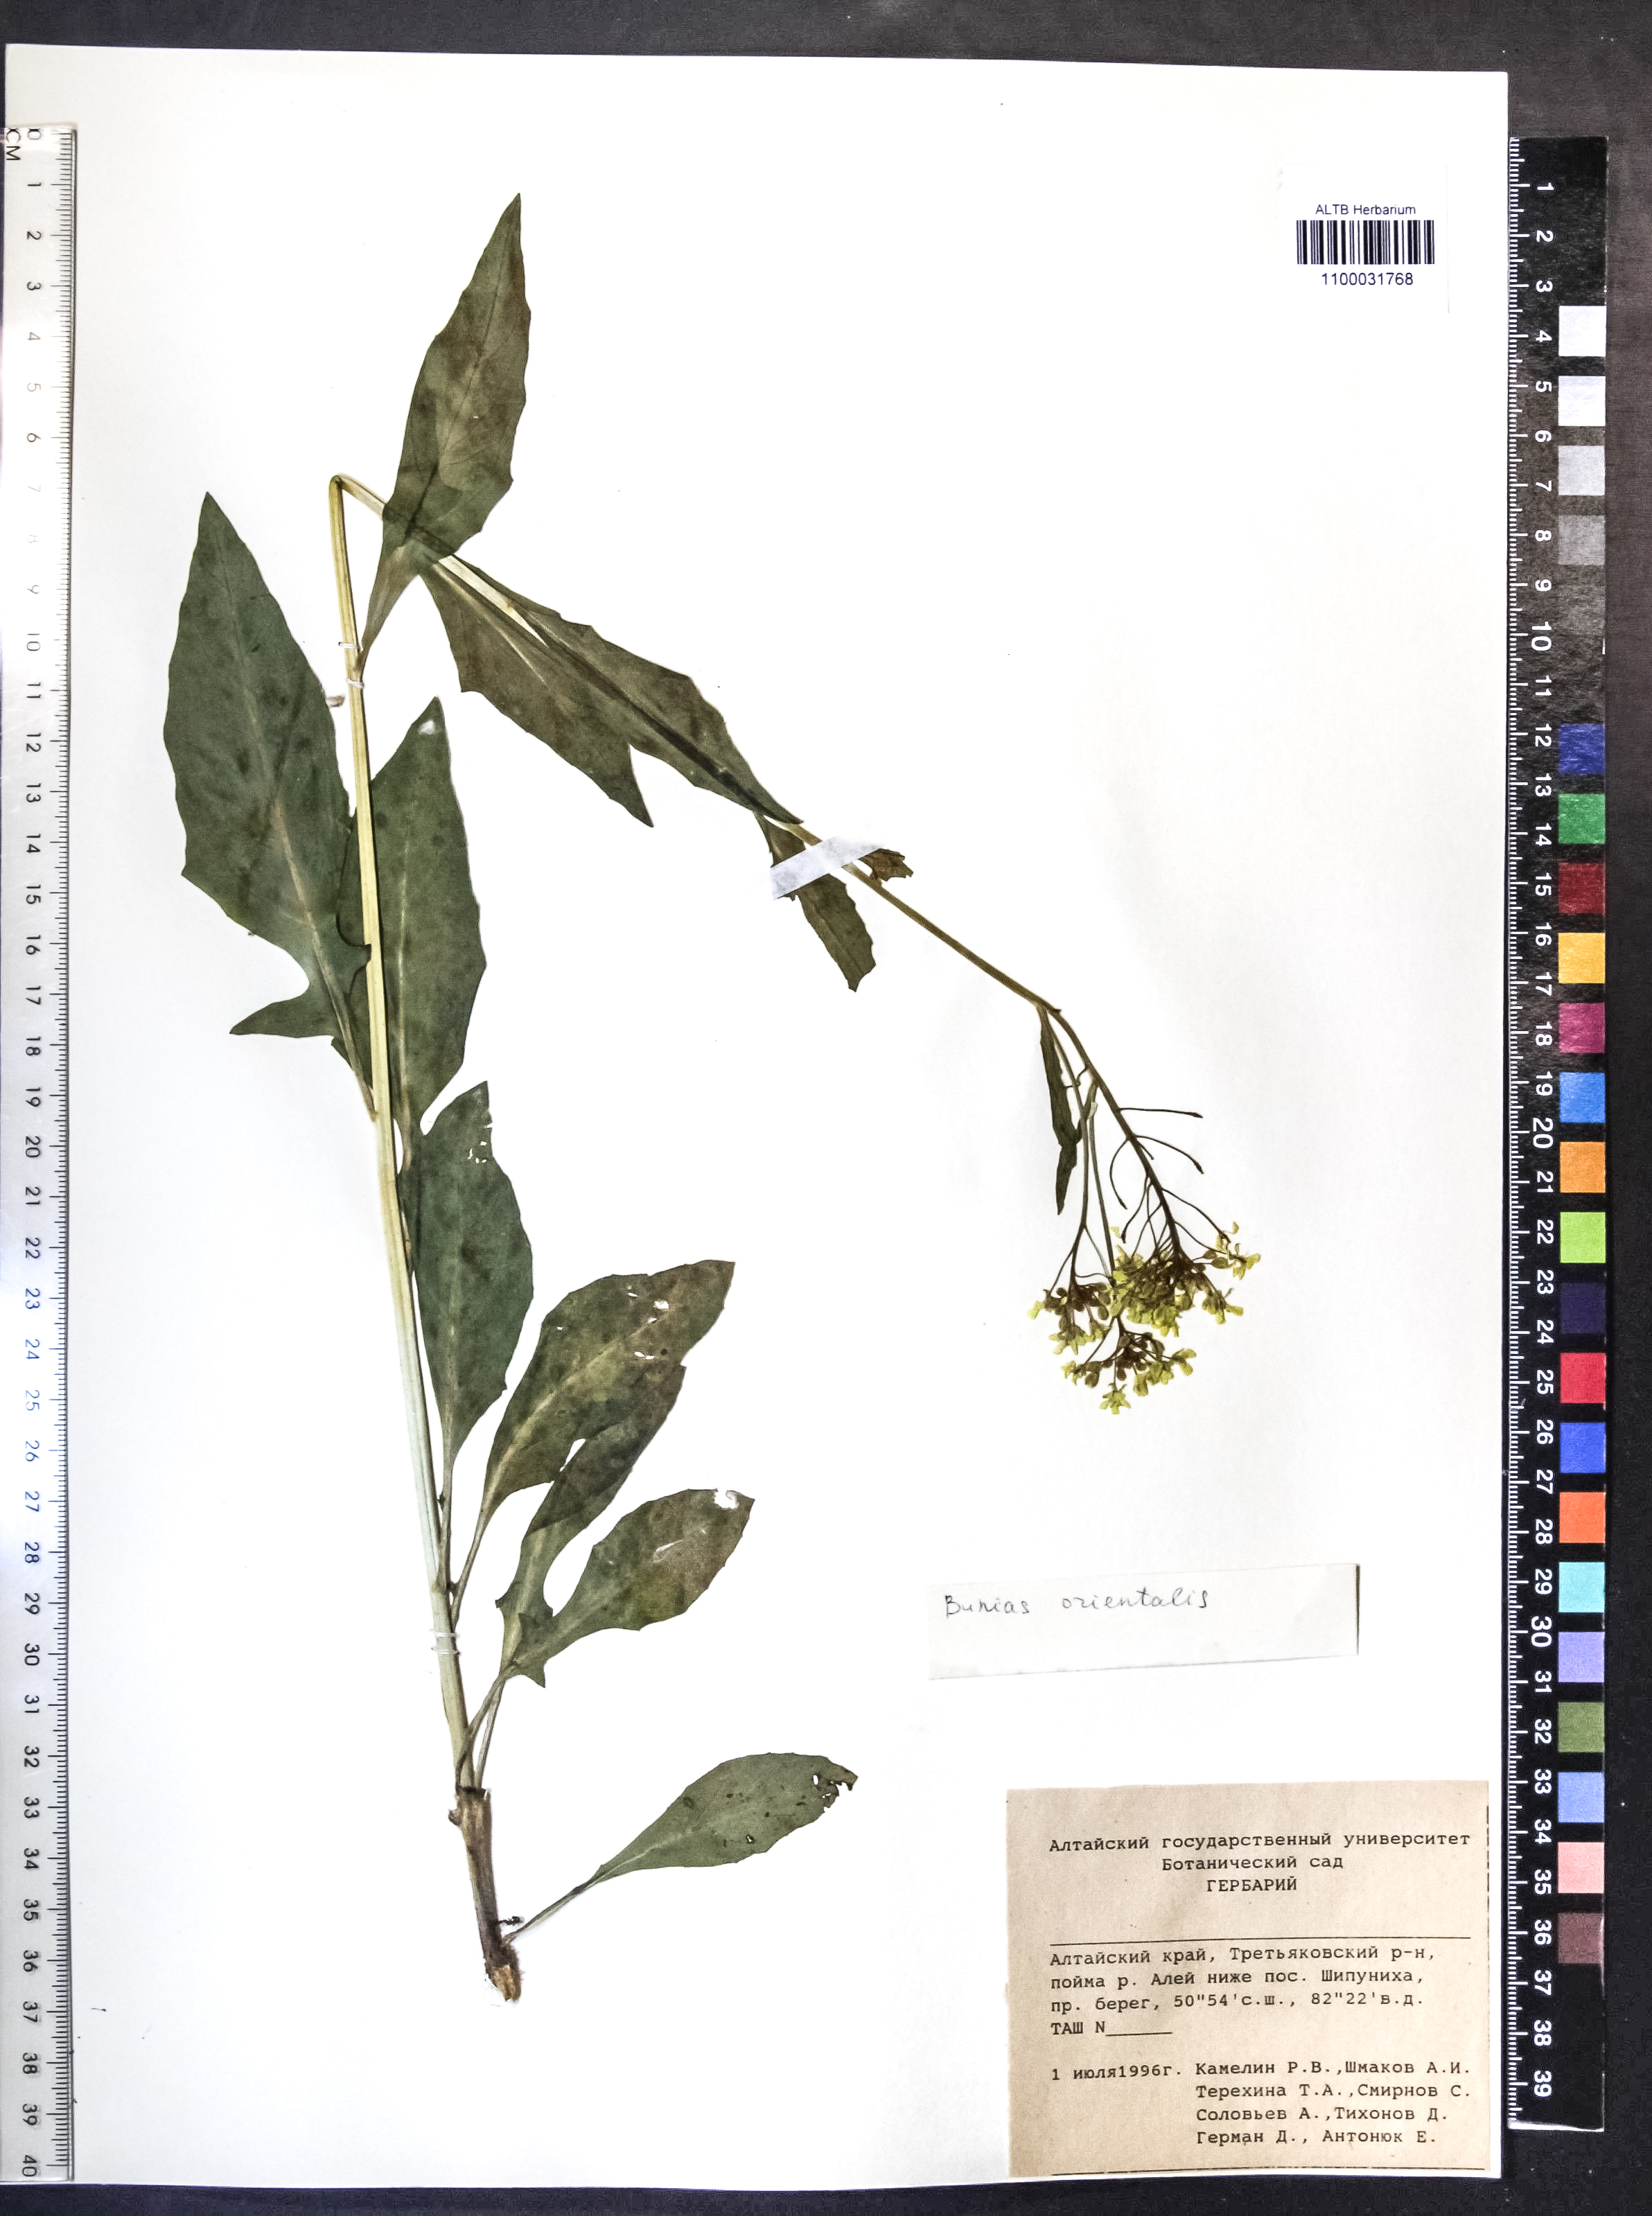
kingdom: Plantae
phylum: Tracheophyta
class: Magnoliopsida
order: Brassicales
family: Brassicaceae
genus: Bunias
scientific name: Bunias orientalis
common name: Warty-cabbage
